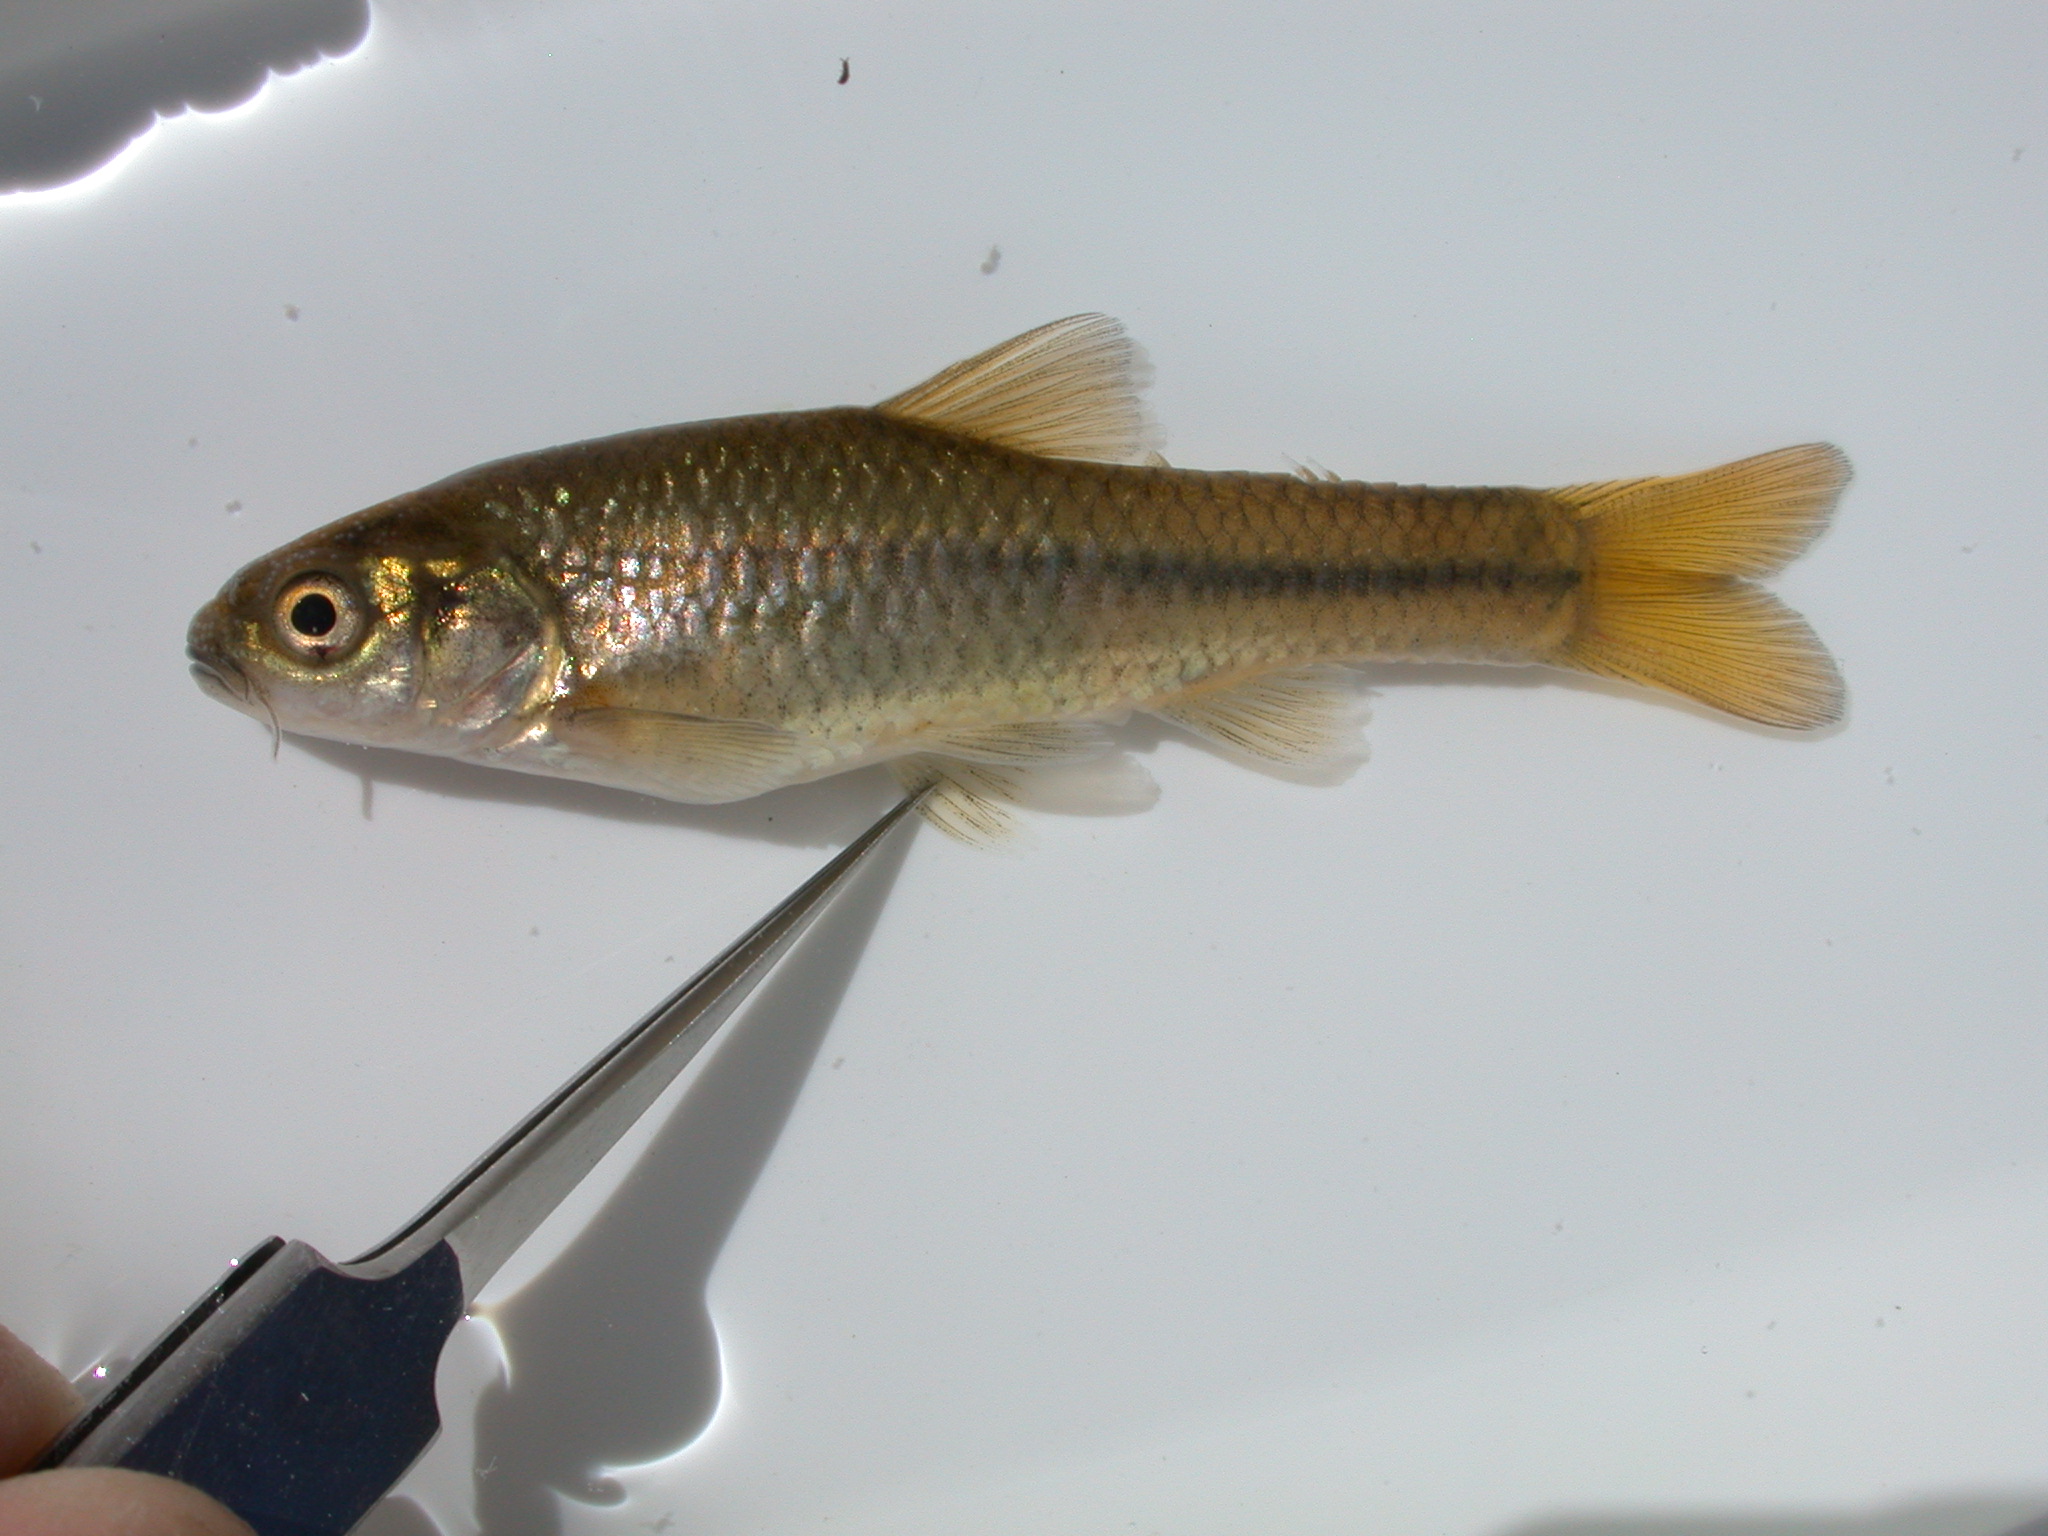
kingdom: Animalia
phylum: Chordata
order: Cypriniformes
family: Cyprinidae
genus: Enteromius
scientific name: Enteromius motebensis
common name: Marico barb
